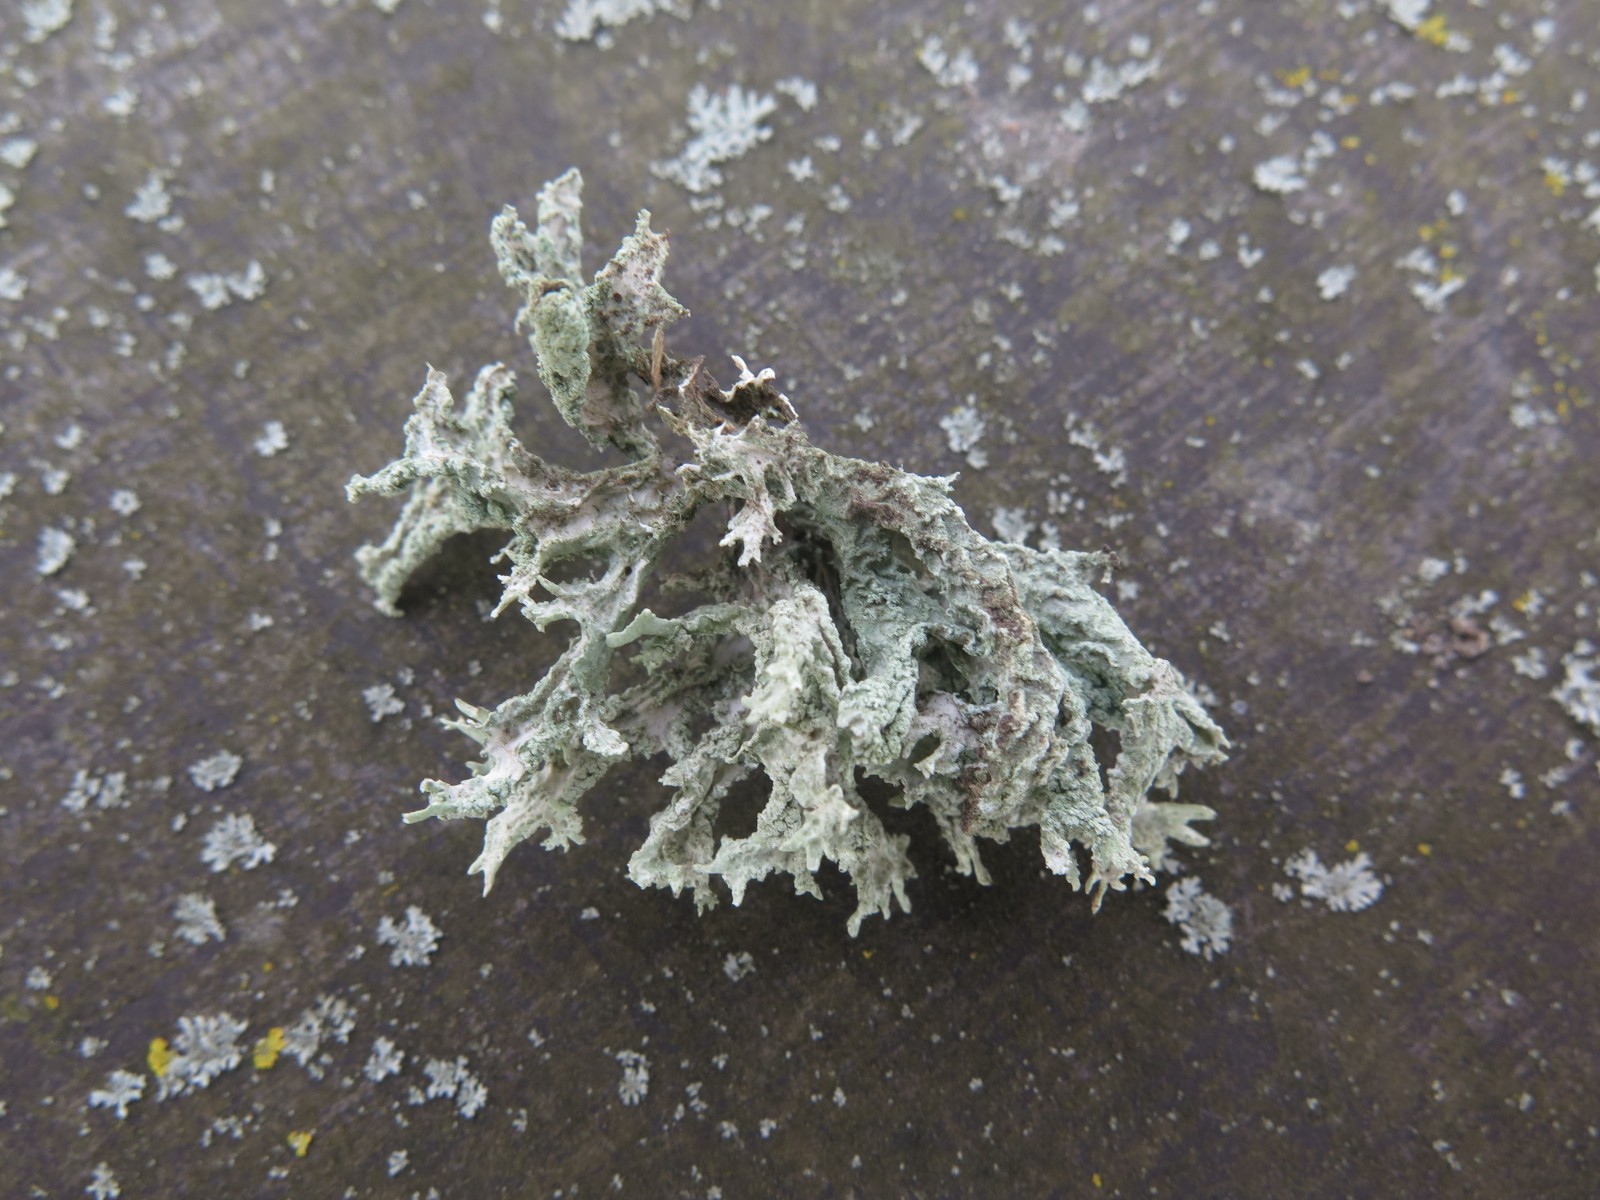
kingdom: Fungi
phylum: Ascomycota
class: Lecanoromycetes
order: Lecanorales
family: Parmeliaceae
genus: Evernia
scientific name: Evernia prunastri
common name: almindelig slåenlav
